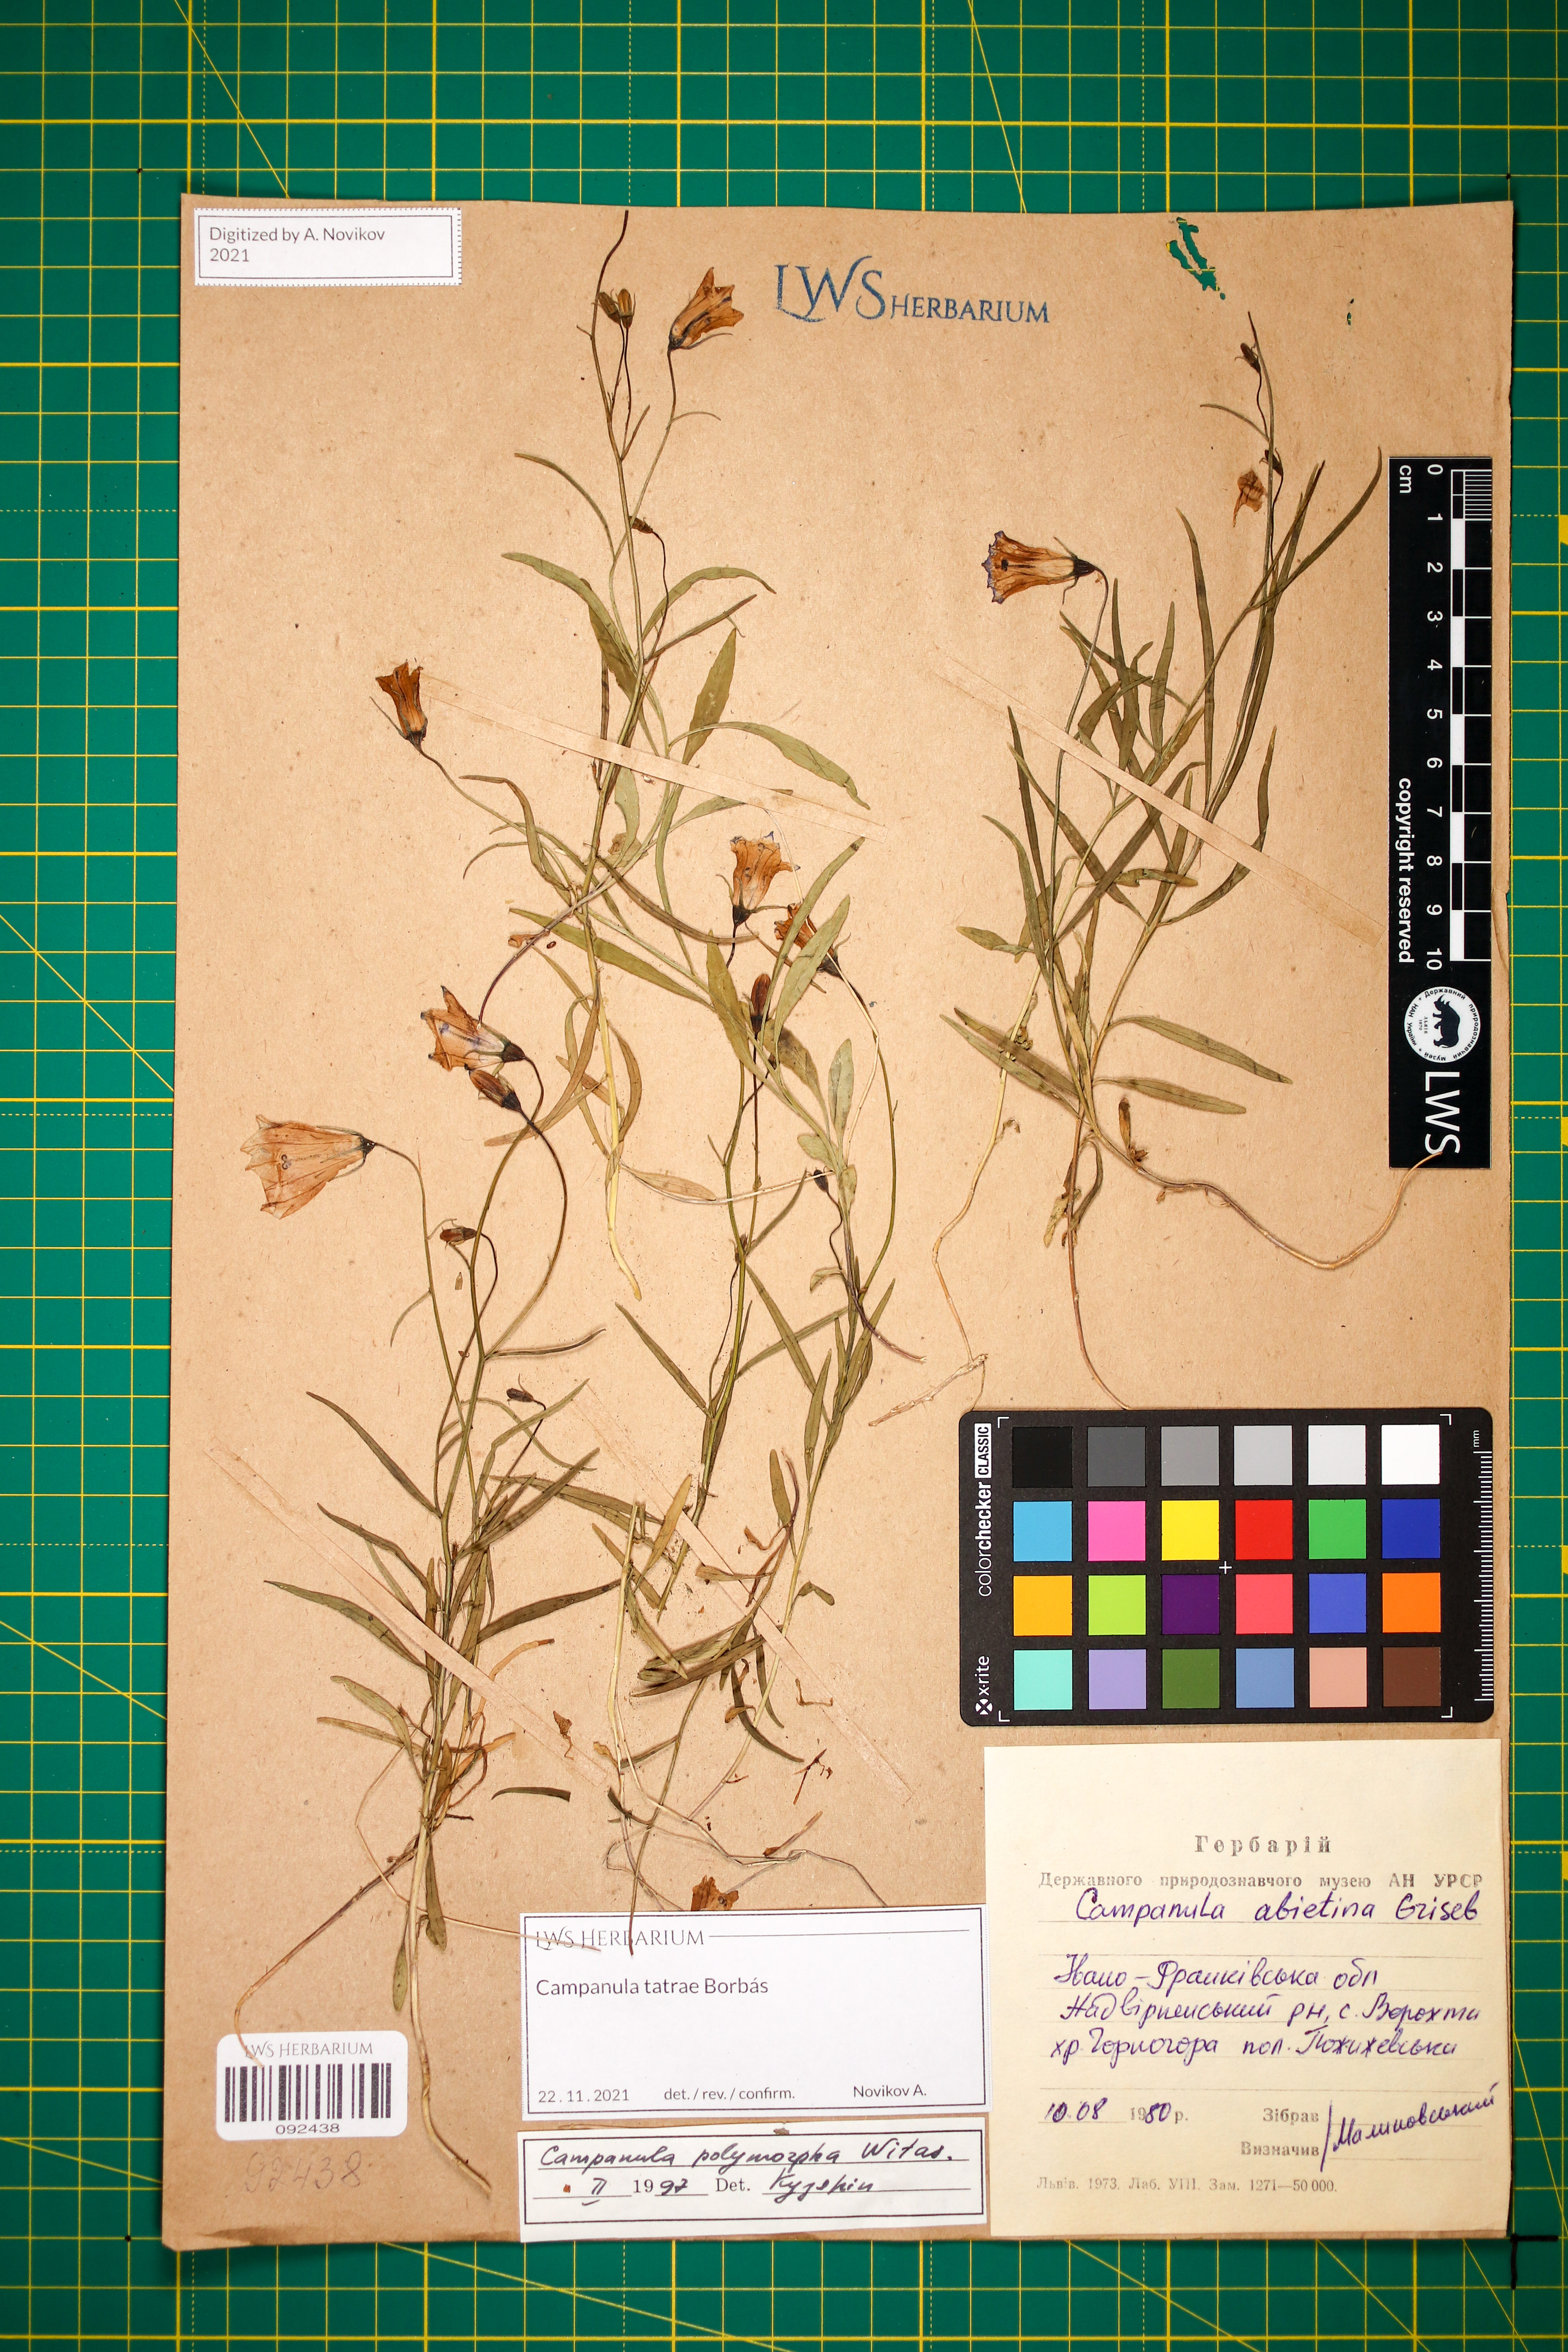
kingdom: Plantae
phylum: Tracheophyta
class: Magnoliopsida
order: Asterales
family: Campanulaceae
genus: Campanula
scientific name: Campanula tatrae
